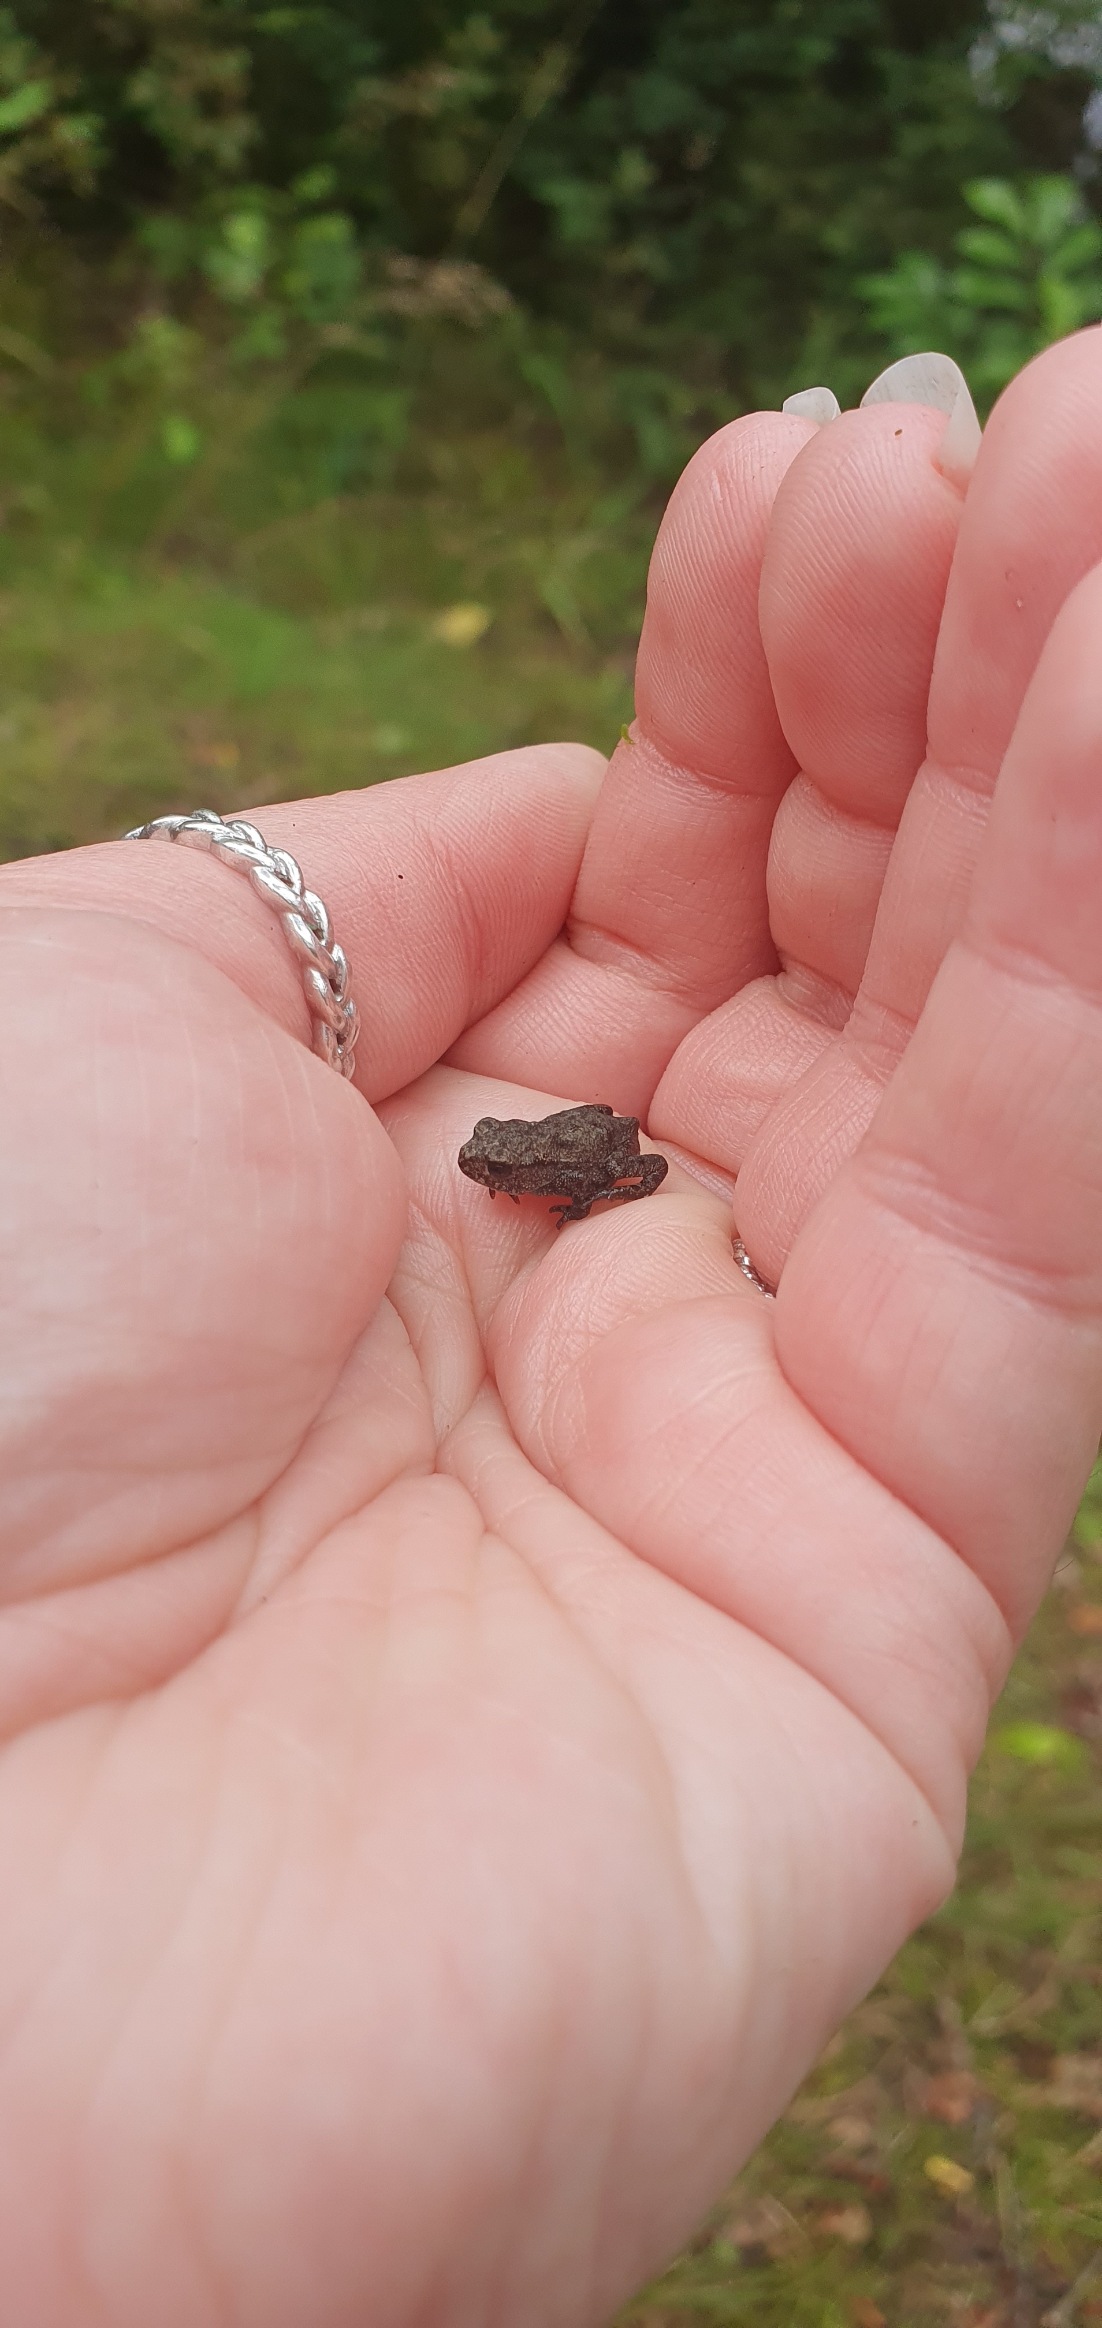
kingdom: Animalia
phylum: Chordata
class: Amphibia
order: Anura
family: Bufonidae
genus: Bufo
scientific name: Bufo bufo
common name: Skrubtudse
